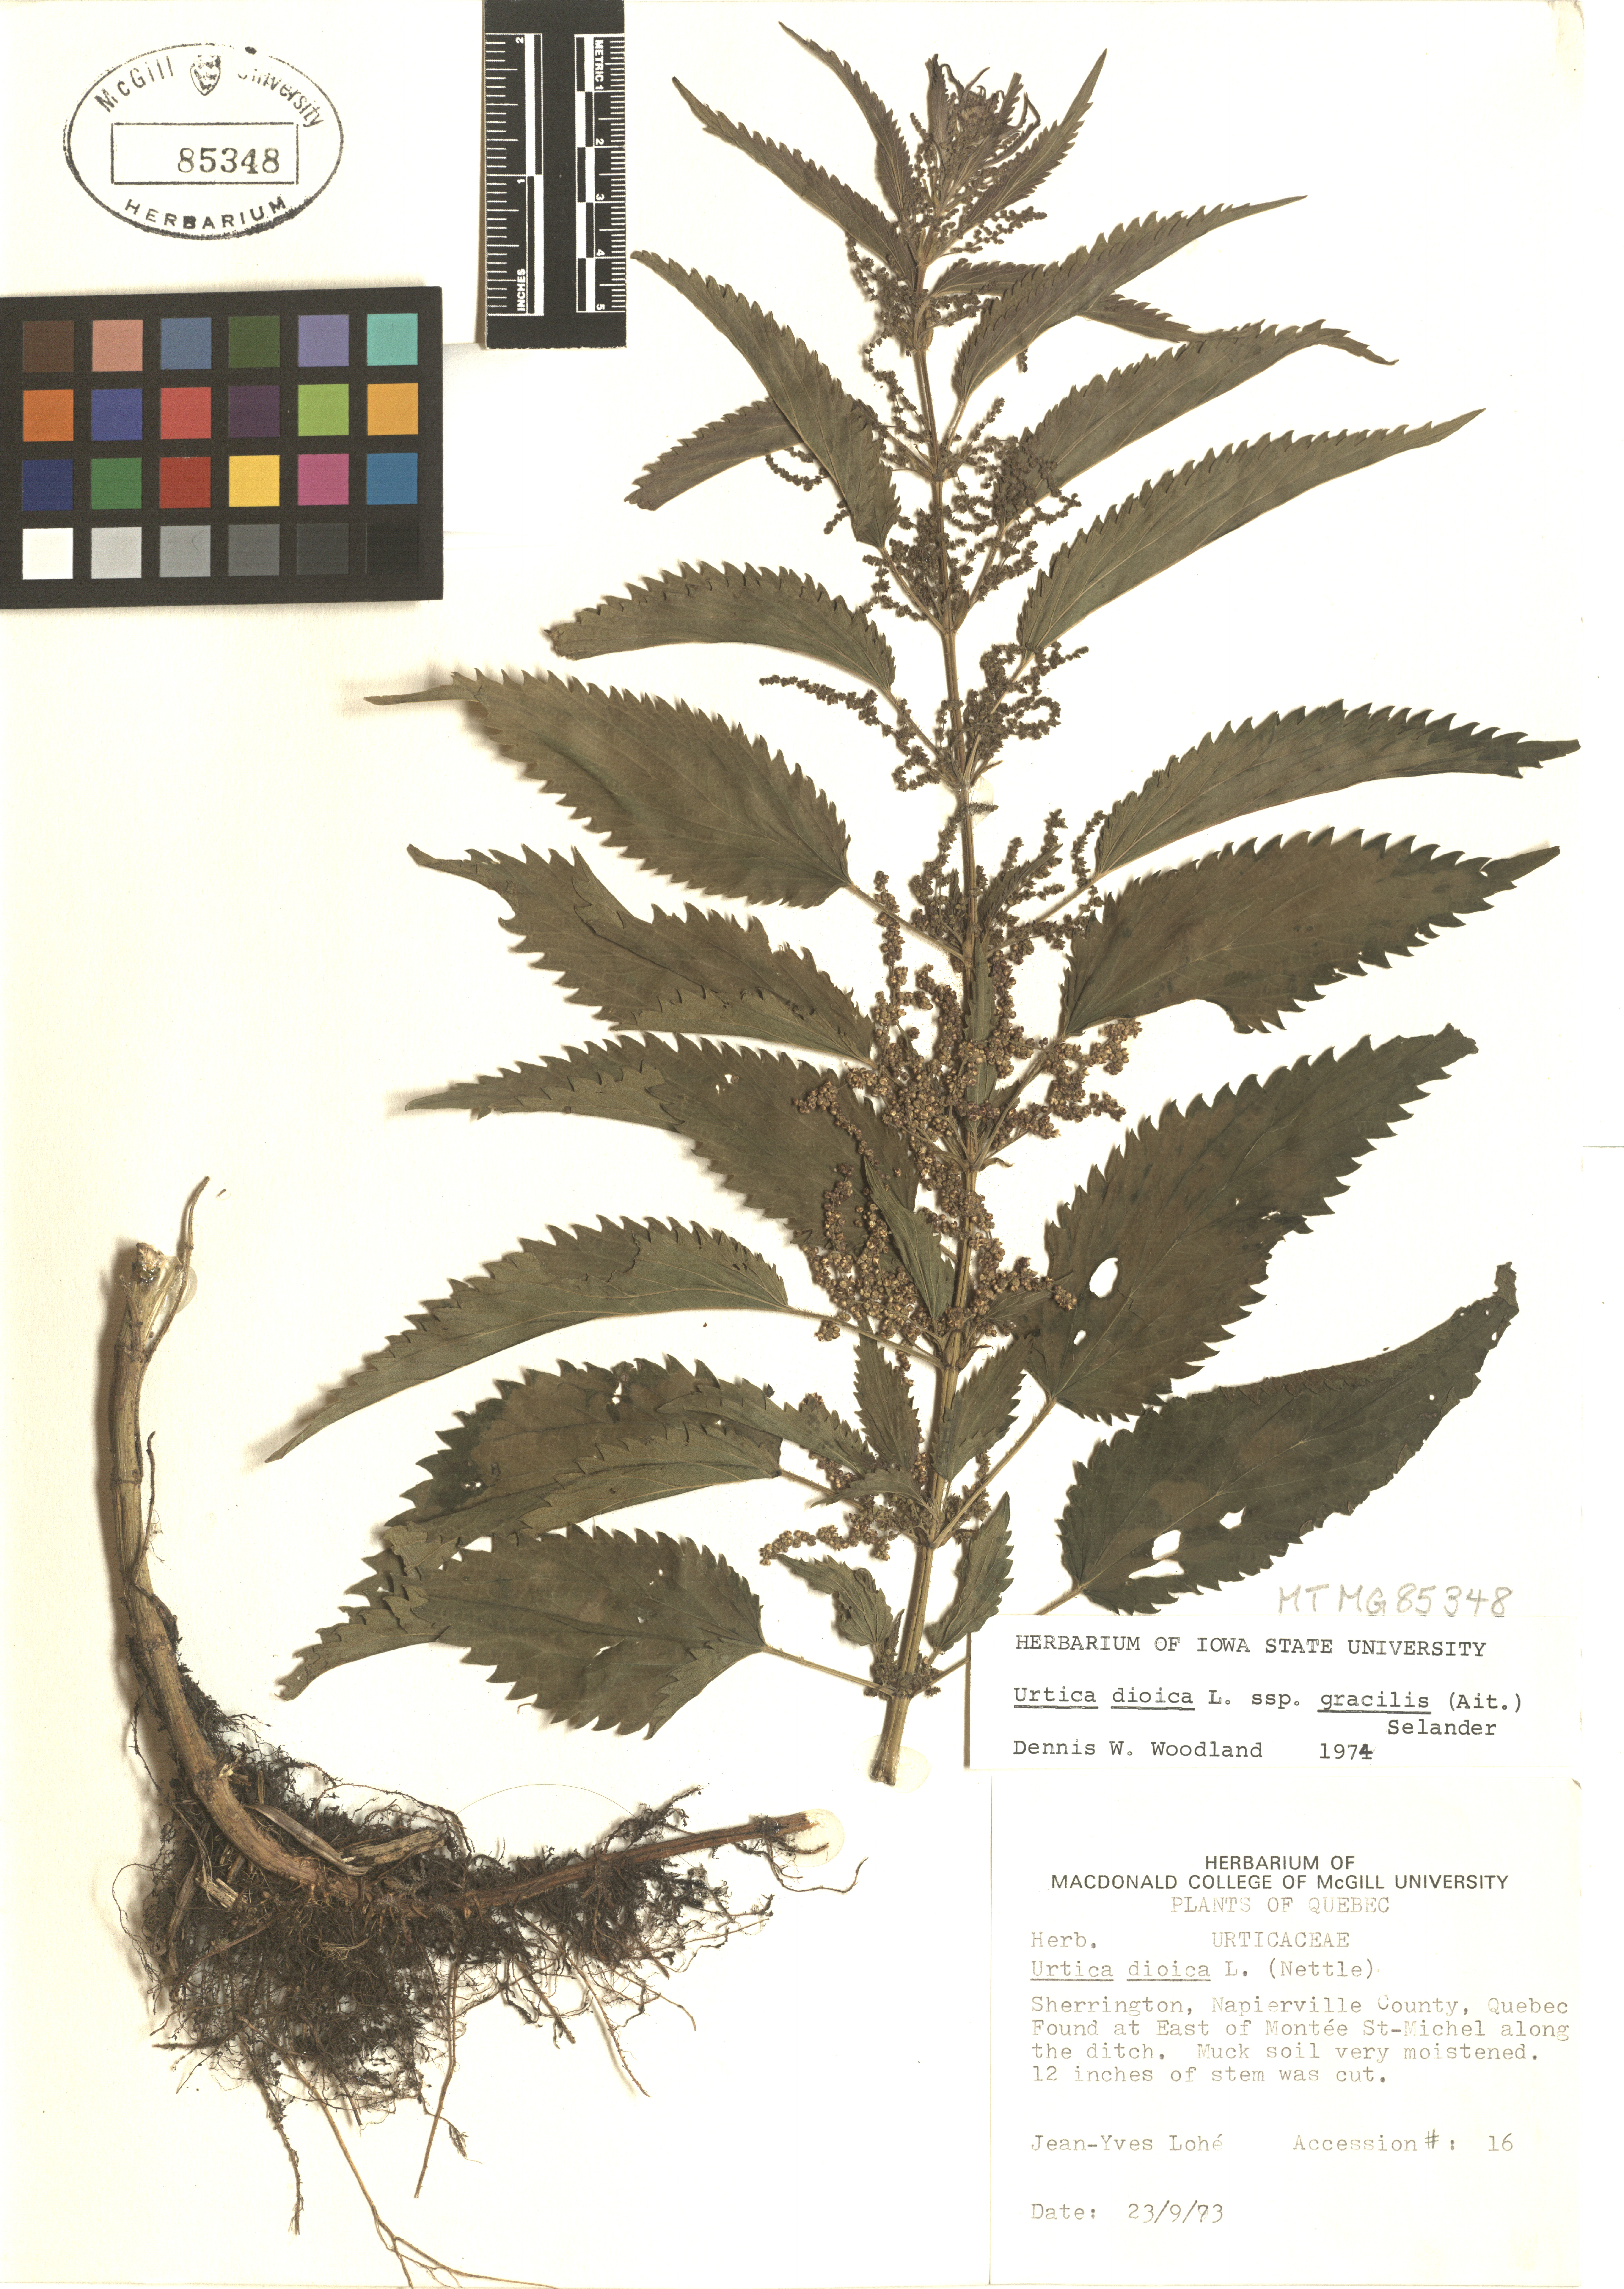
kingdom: Plantae
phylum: Tracheophyta
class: Magnoliopsida
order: Rosales
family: Urticaceae
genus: Urtica
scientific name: Urtica gracilis
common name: Slender stinging nettle
